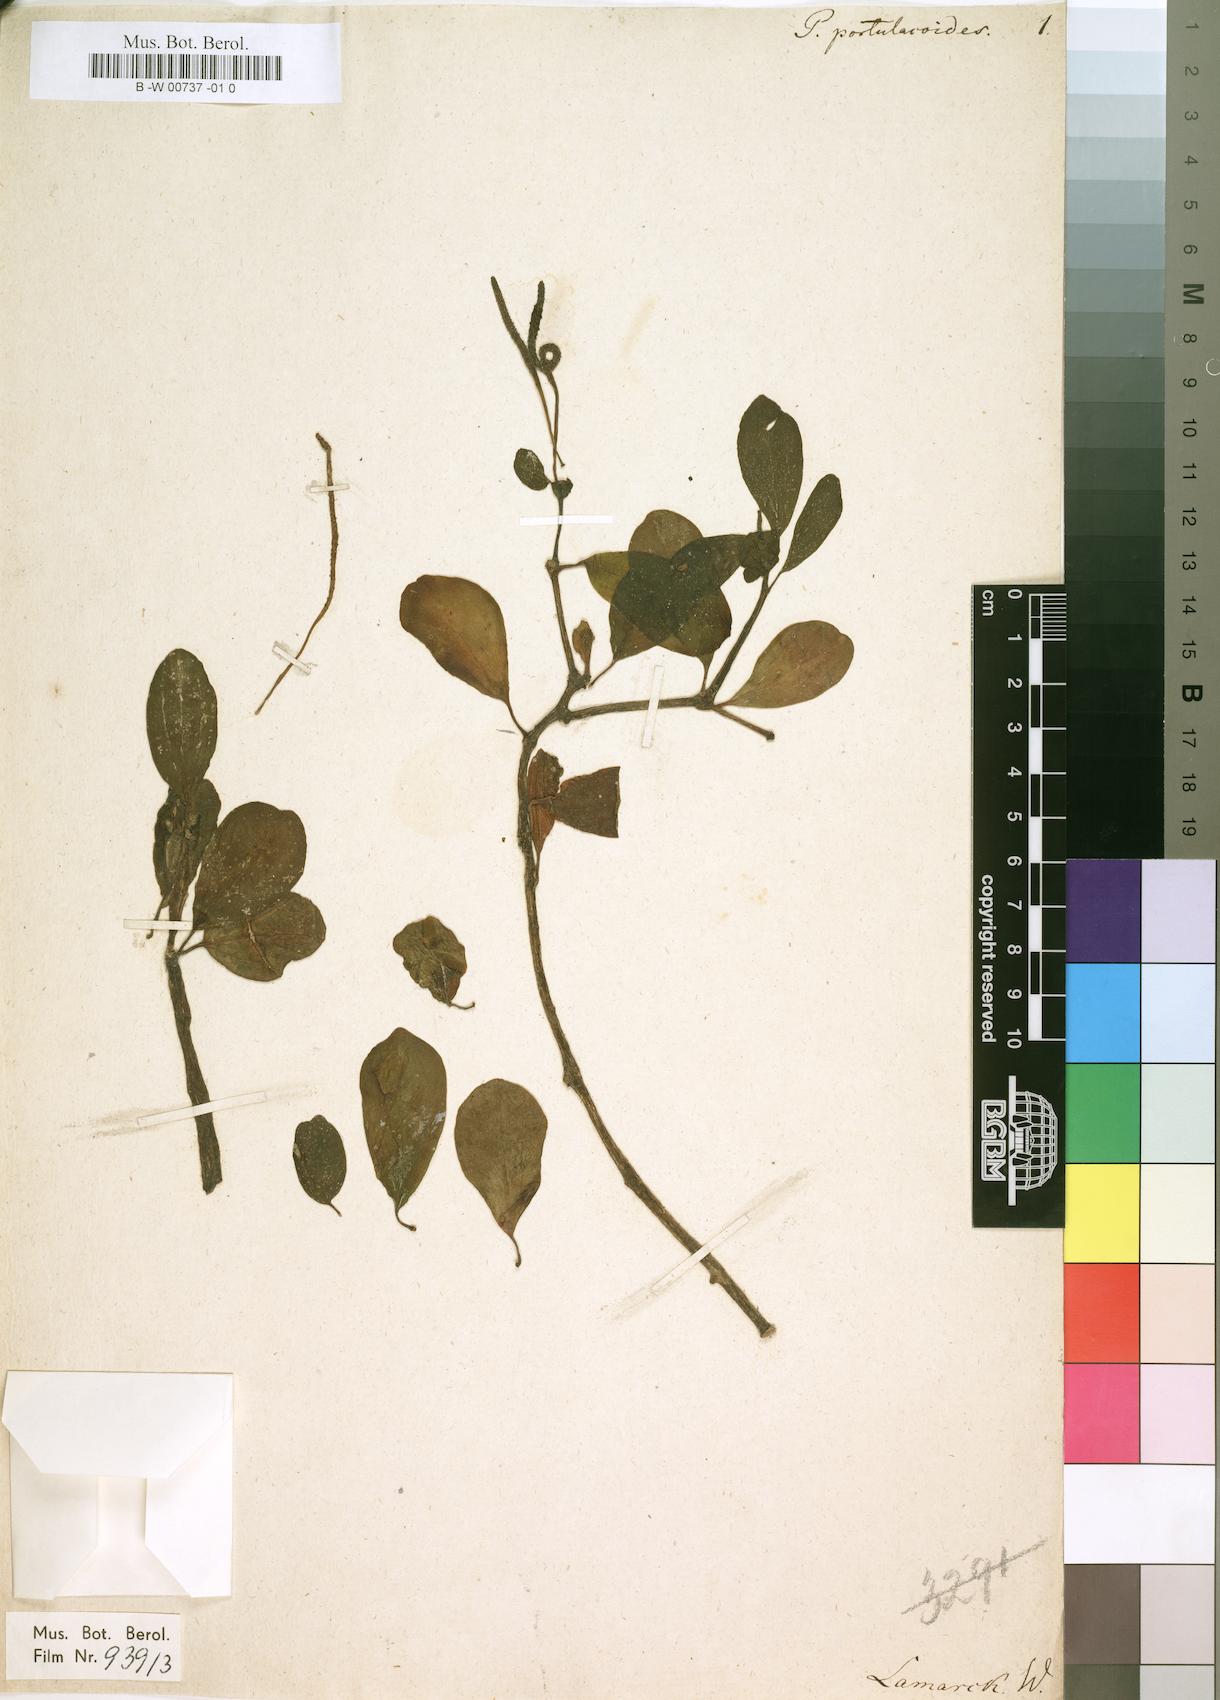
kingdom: Plantae
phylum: Tracheophyta
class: Magnoliopsida
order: Piperales
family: Piperaceae
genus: Peperomia
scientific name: Peperomia portulacoides
